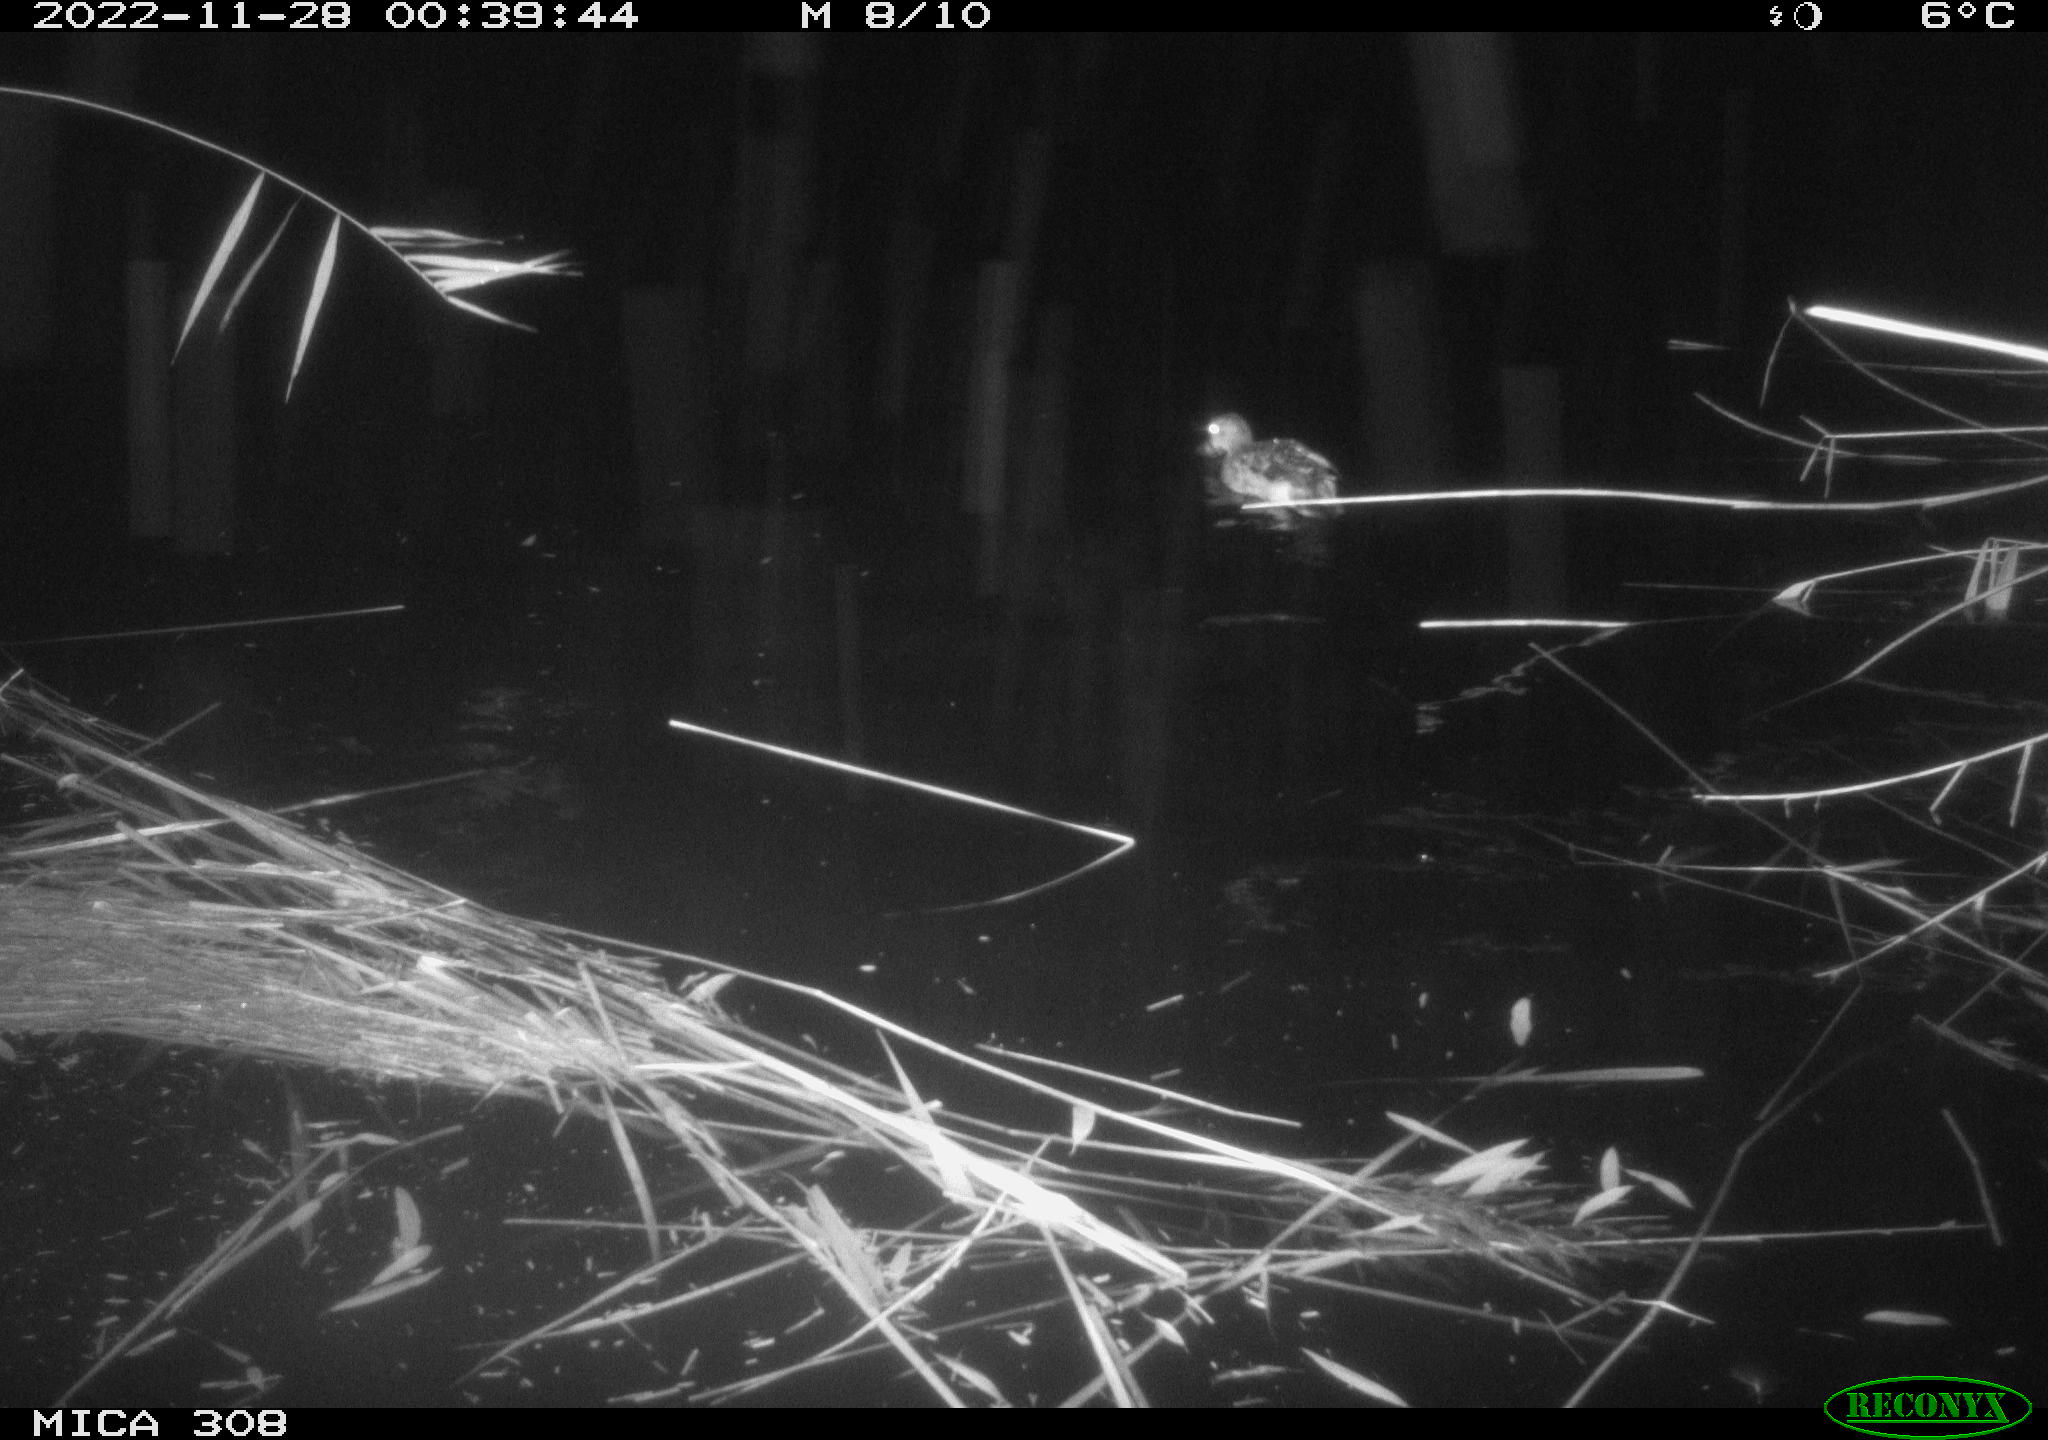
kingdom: Animalia
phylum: Chordata
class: Aves
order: Anseriformes
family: Anatidae
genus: Anas
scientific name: Anas
